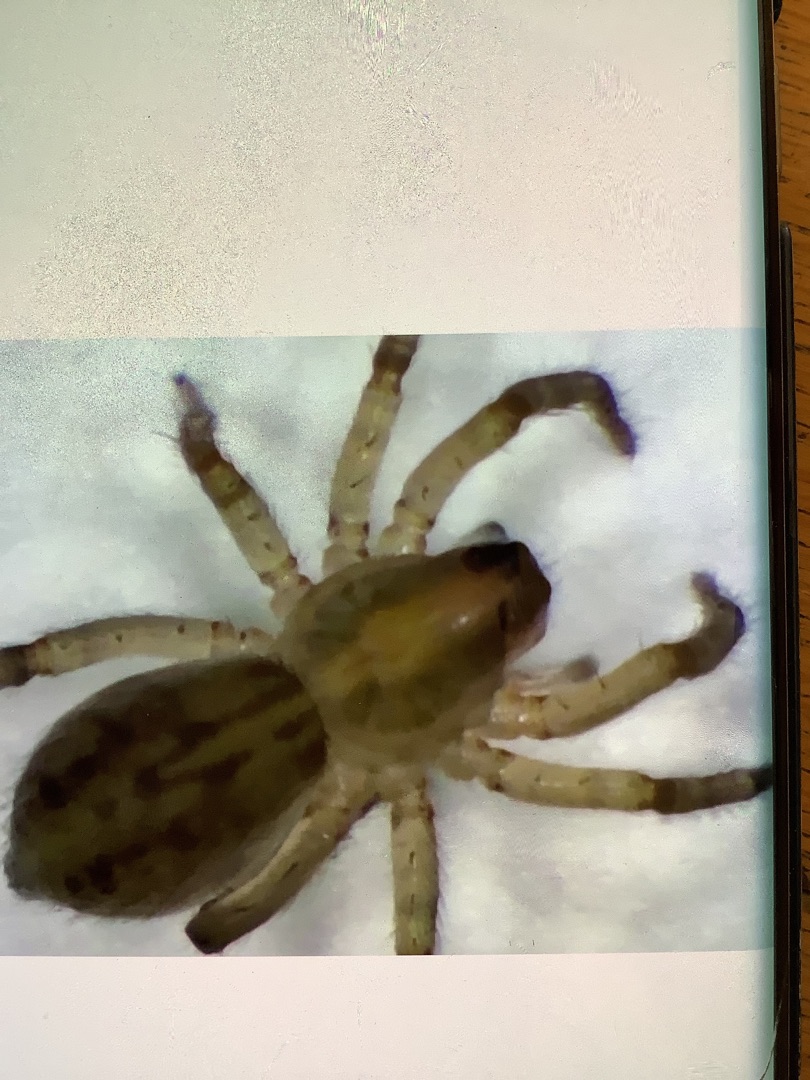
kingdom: Animalia
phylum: Arthropoda
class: Arachnida
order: Araneae
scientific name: Araneae
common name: Edderkopper
